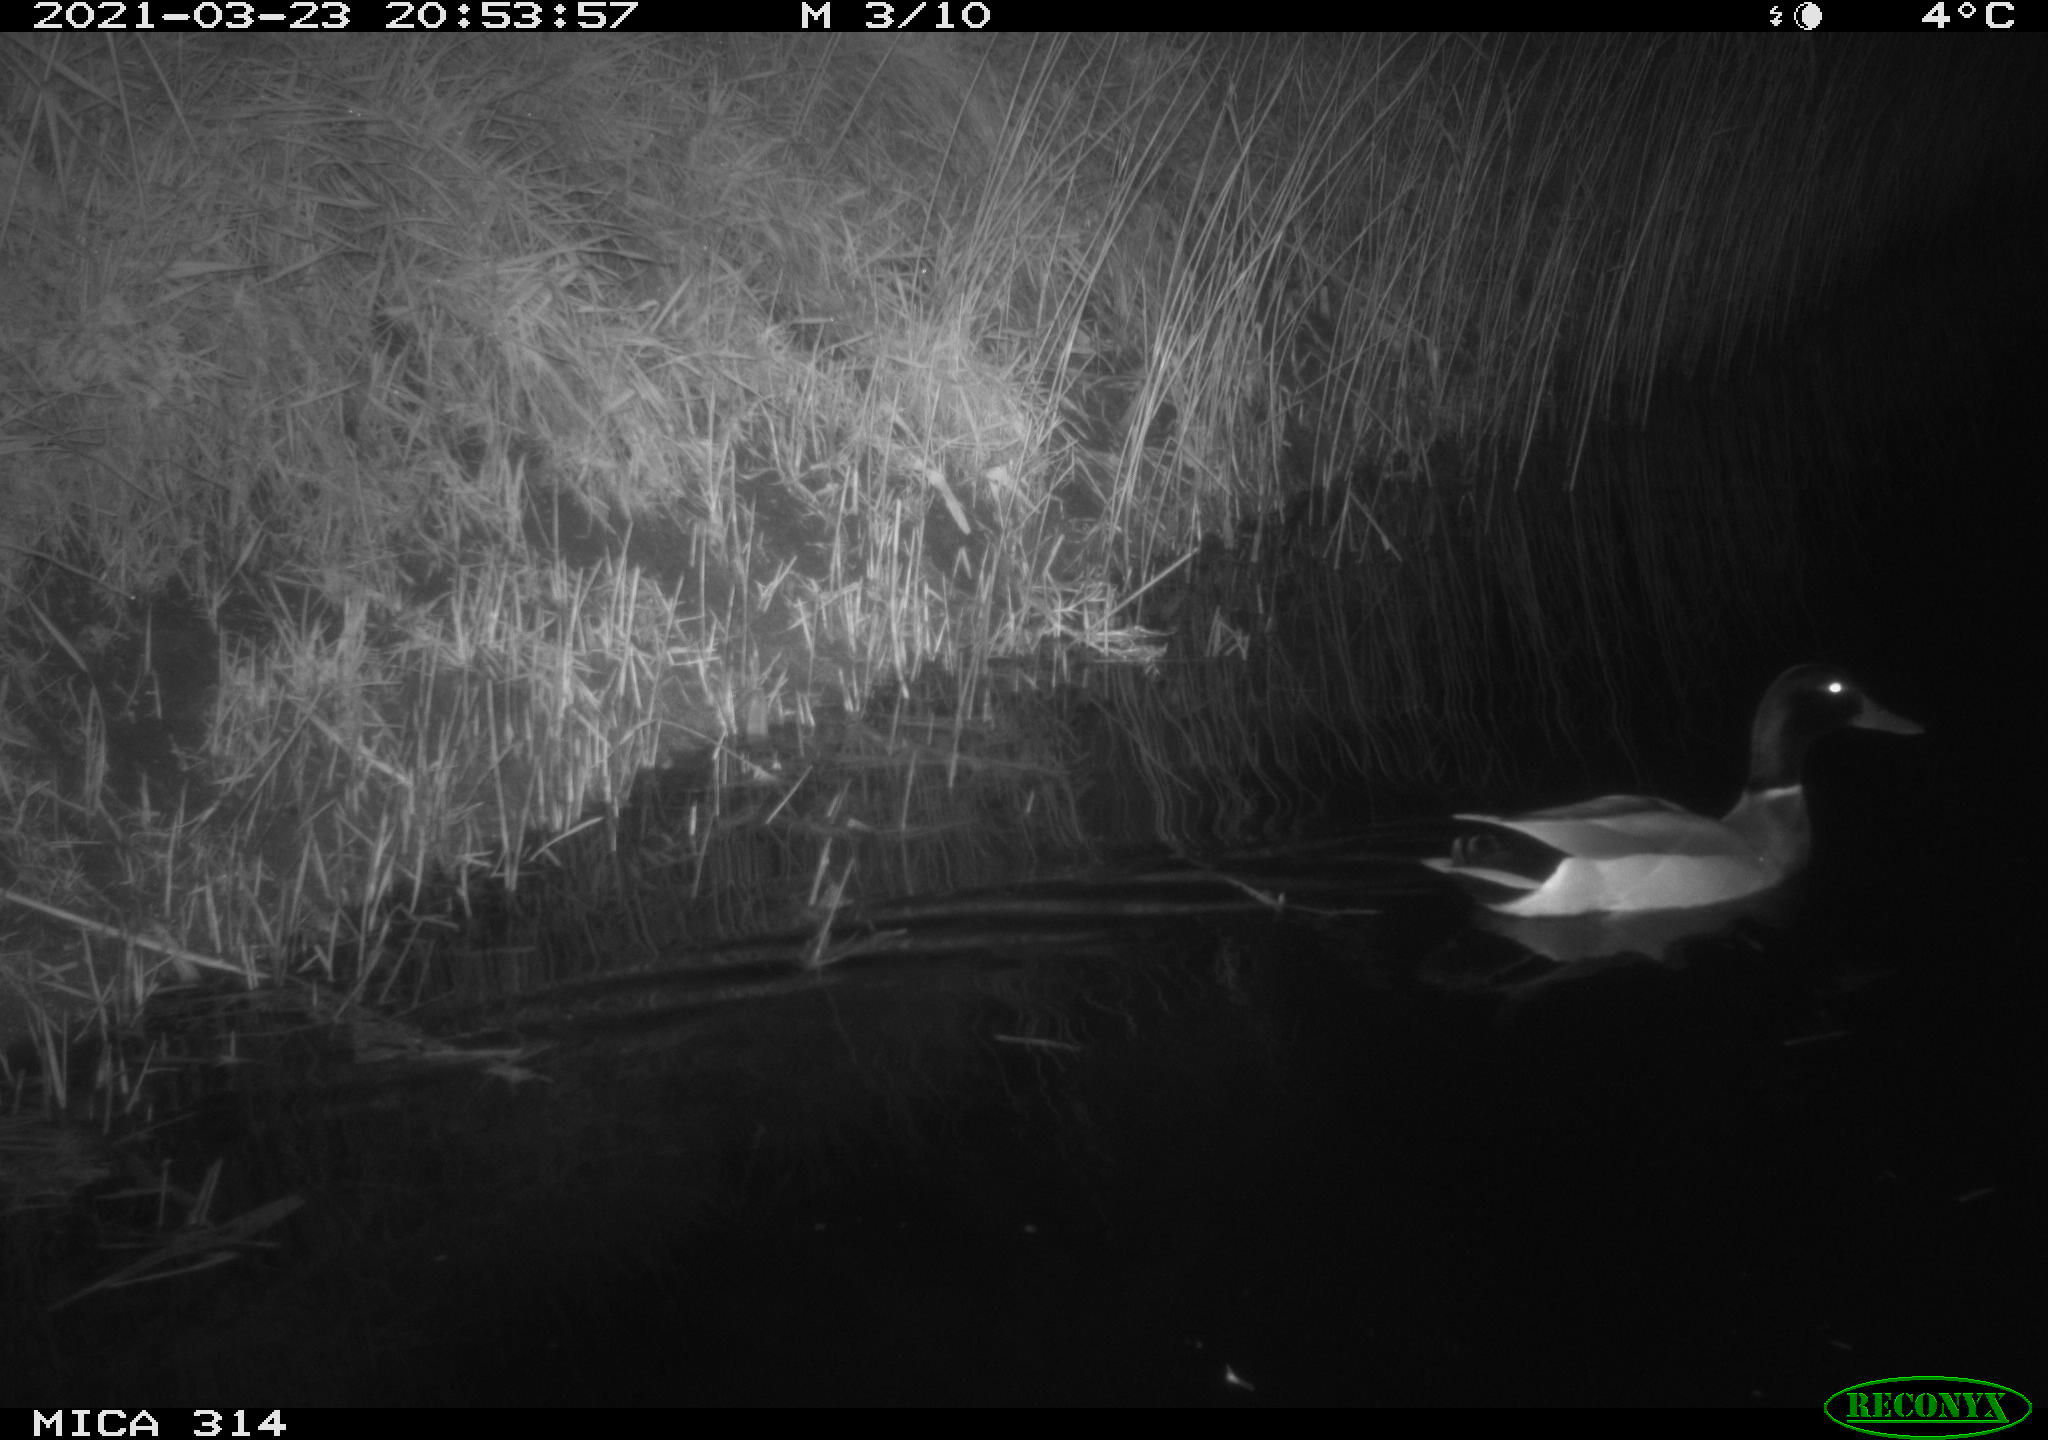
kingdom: Animalia
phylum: Chordata
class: Aves
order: Anseriformes
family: Anatidae
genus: Anas
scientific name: Anas platyrhynchos
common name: Mallard
